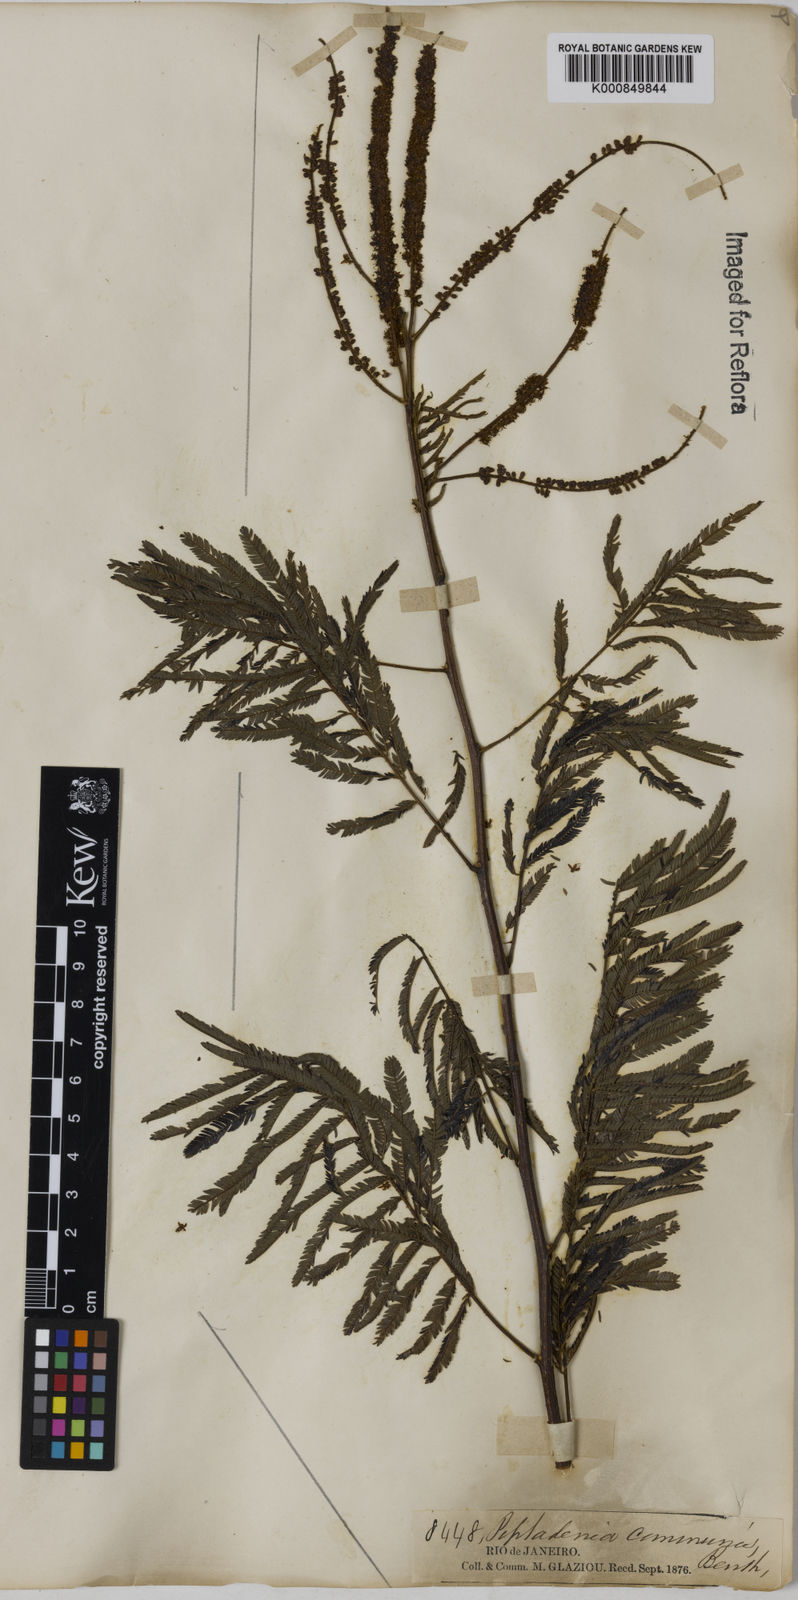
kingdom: Plantae
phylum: Tracheophyta
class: Magnoliopsida
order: Fabales
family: Fabaceae
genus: Piptadenia
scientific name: Piptadenia gonoacantha
